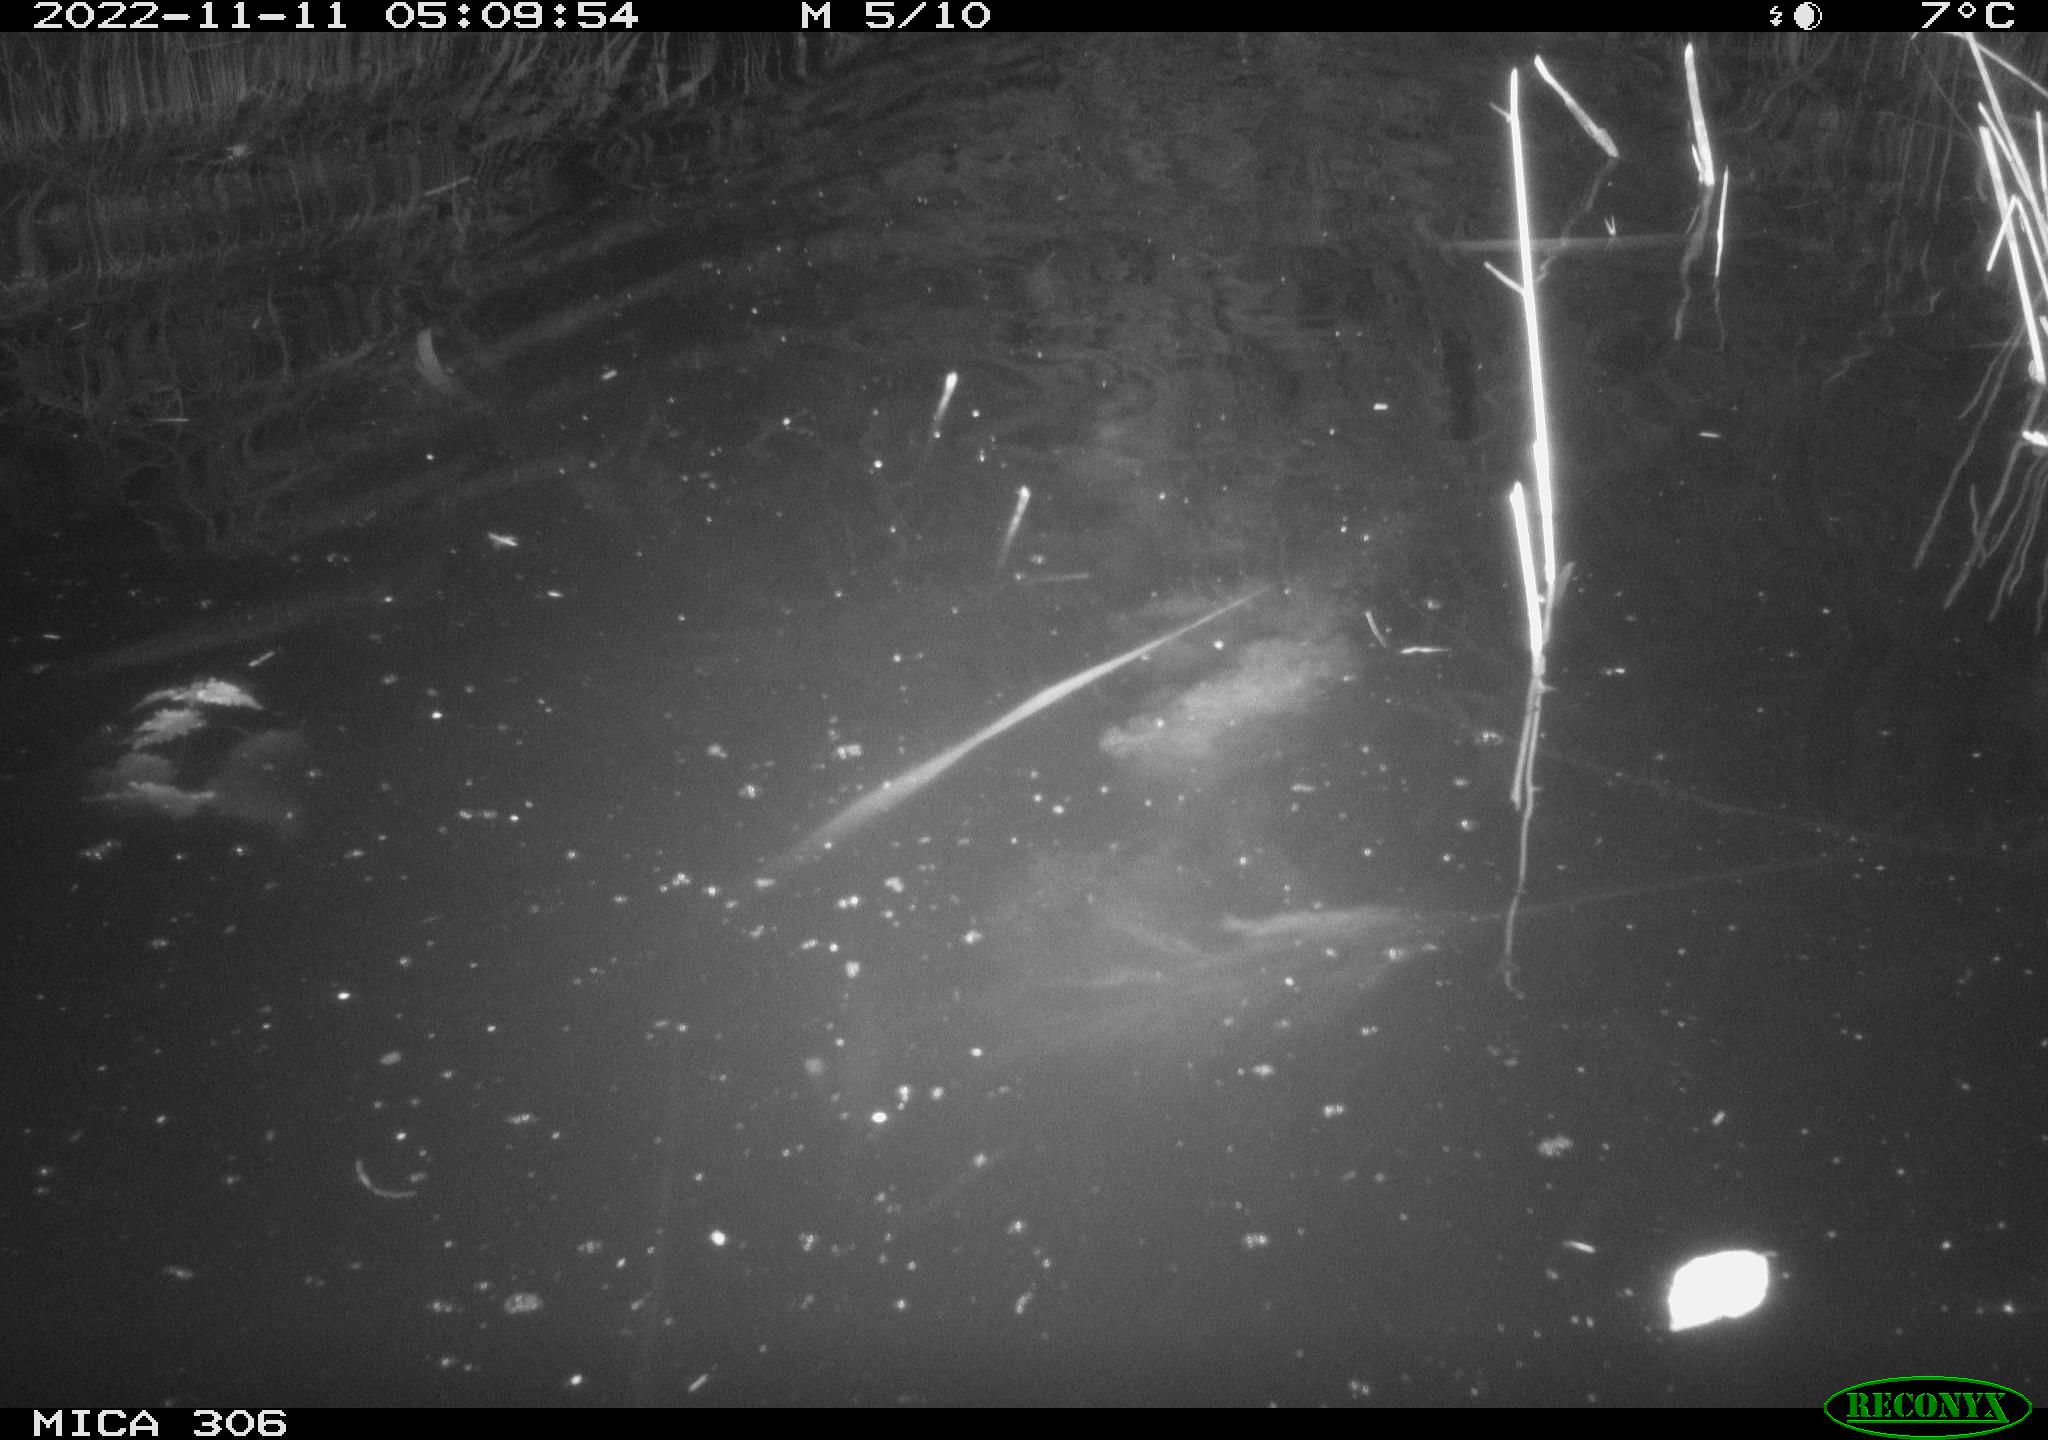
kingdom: Animalia
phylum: Chordata
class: Mammalia
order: Rodentia
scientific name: Rodentia
